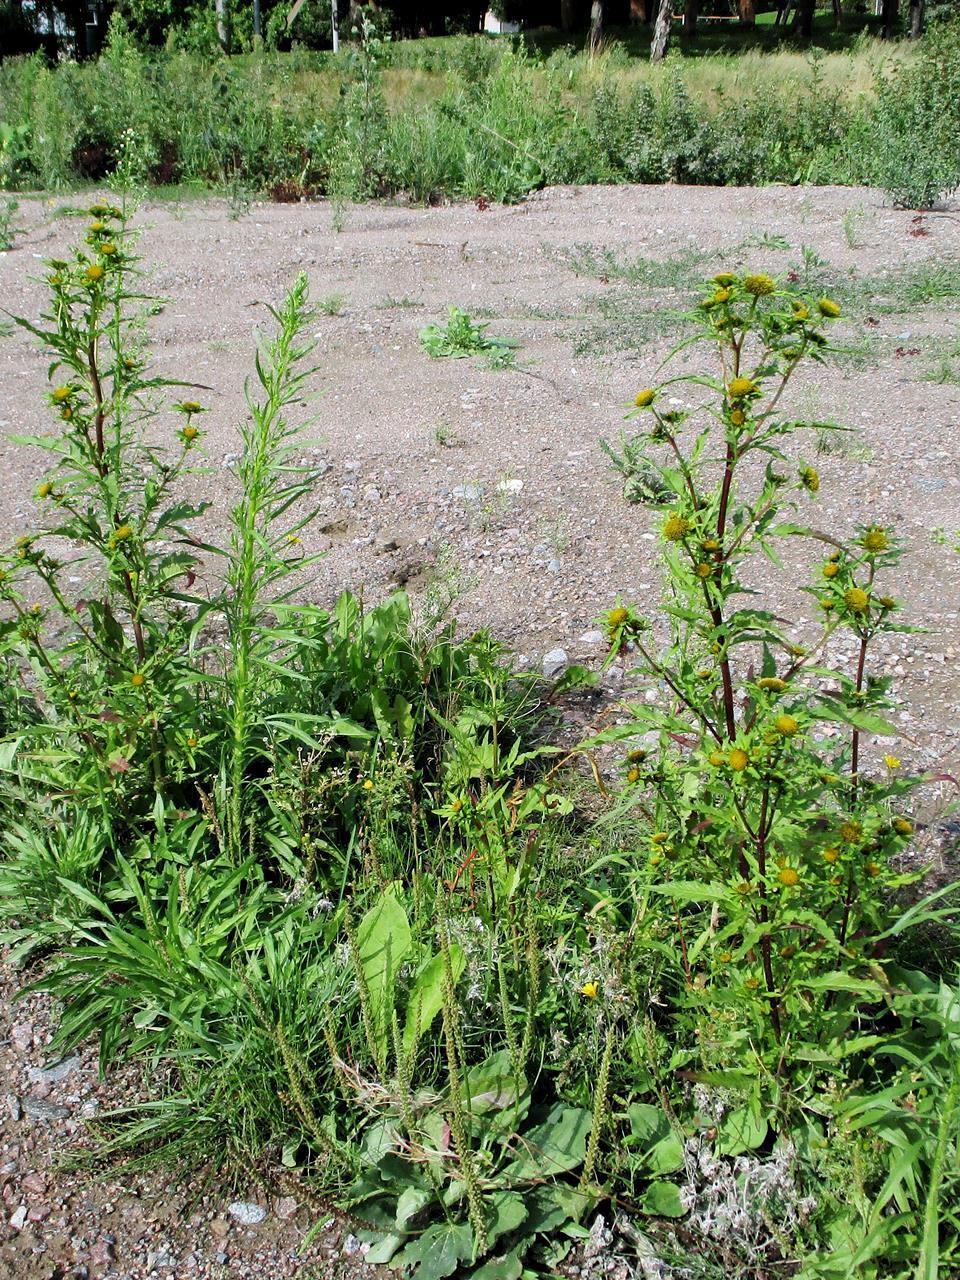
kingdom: Plantae
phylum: Tracheophyta
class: Magnoliopsida
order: Asterales
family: Asteraceae
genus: Bidens
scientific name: Bidens radiata
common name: Radiating bur-marigold
